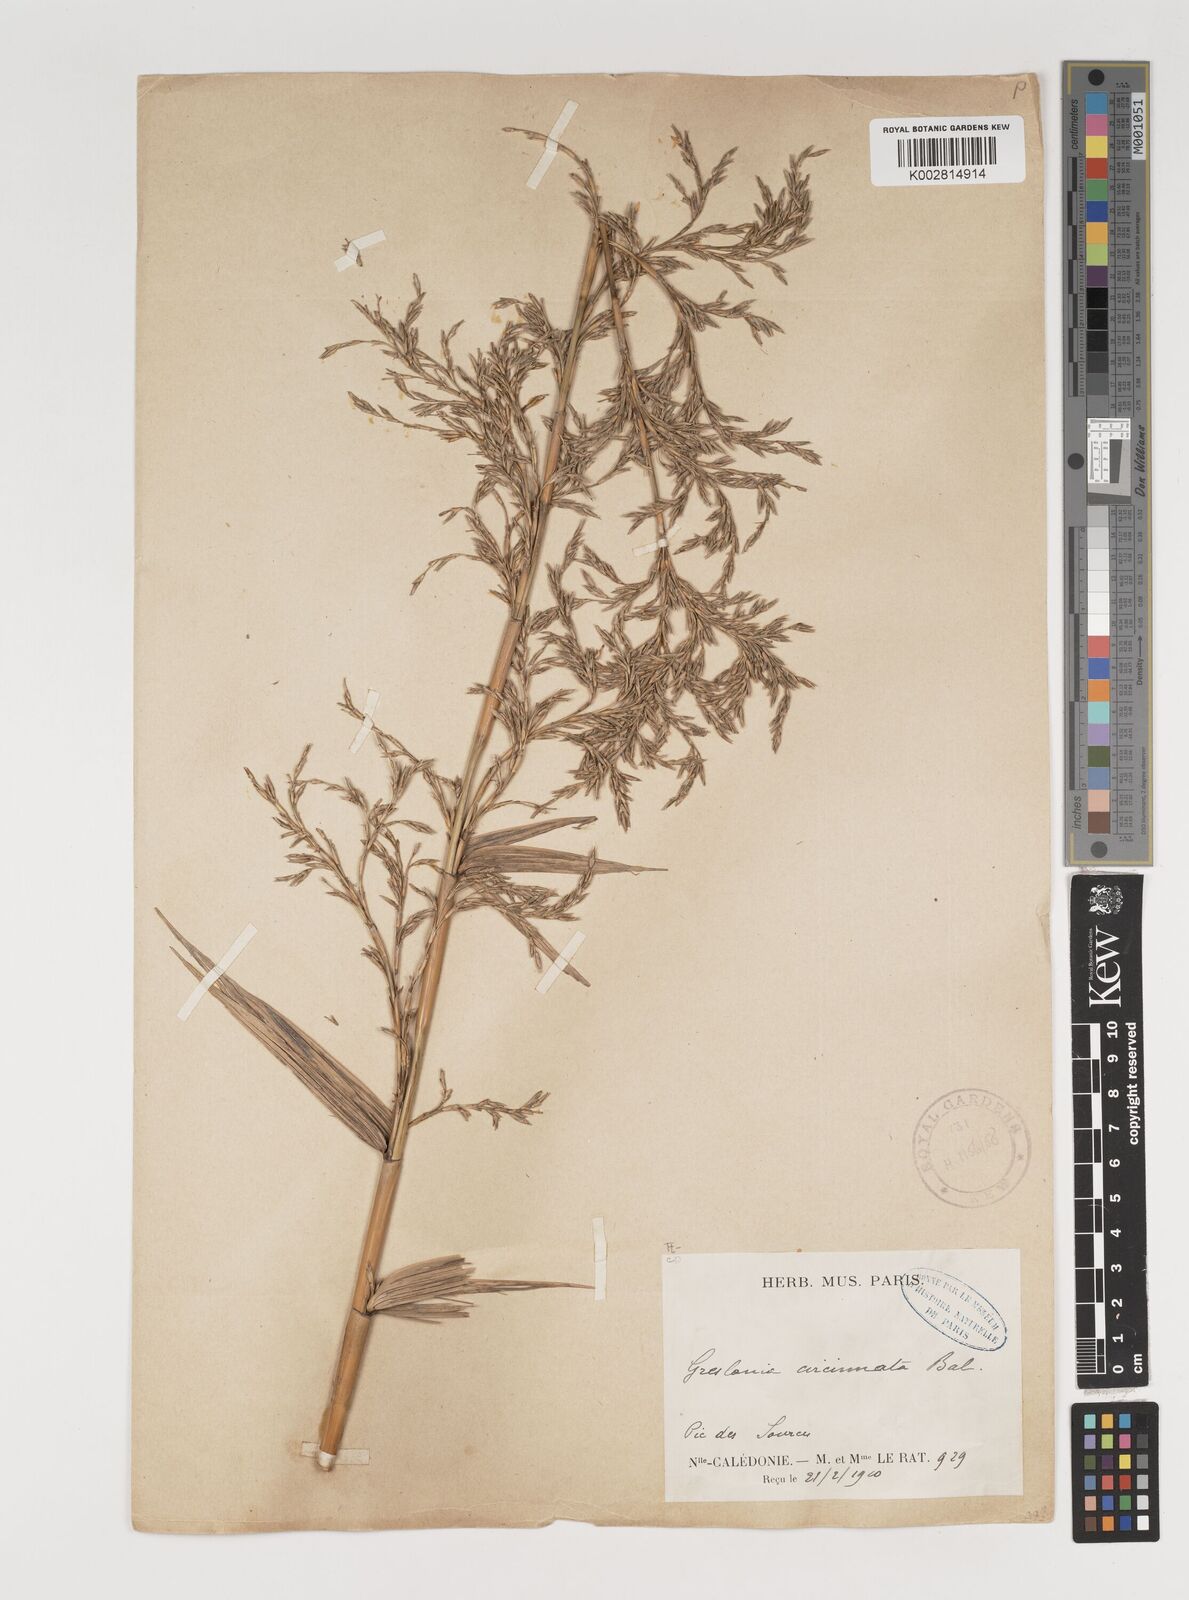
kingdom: Plantae
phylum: Tracheophyta
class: Liliopsida
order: Poales
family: Poaceae
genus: Greslania
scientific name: Greslania circinata
